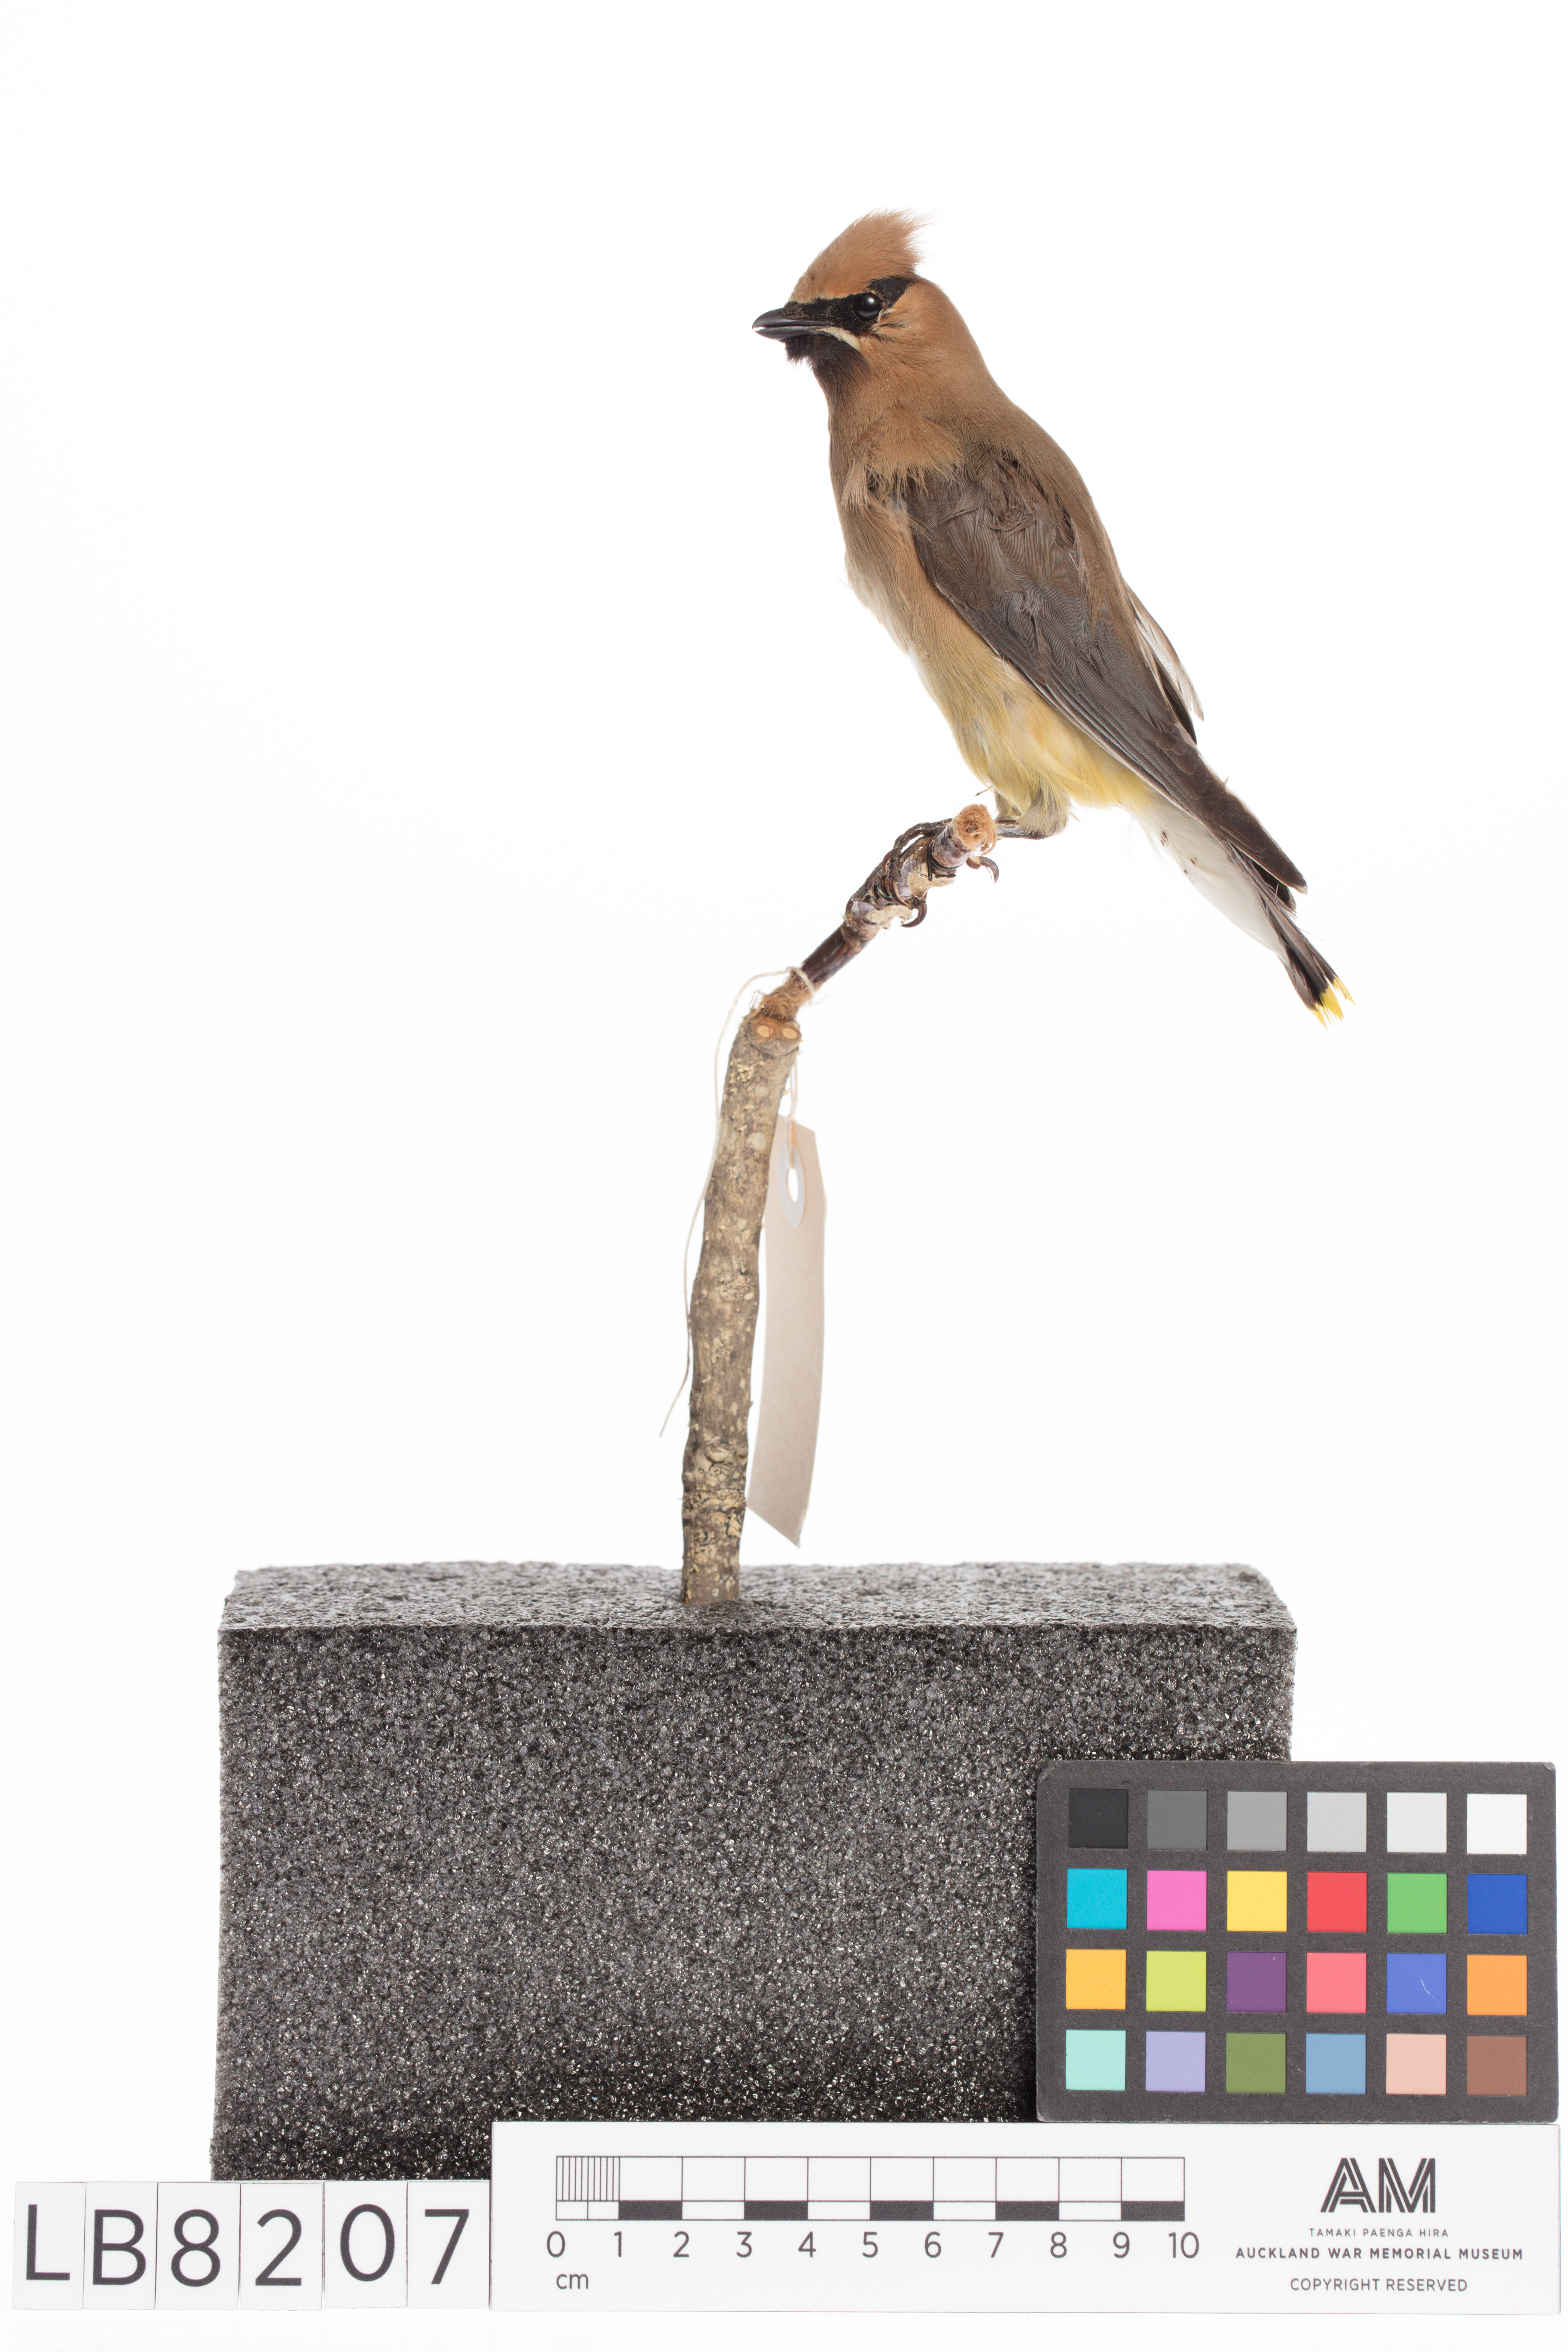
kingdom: Animalia
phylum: Chordata
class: Aves
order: Passeriformes
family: Bombycillidae
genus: Bombycilla
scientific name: Bombycilla cedrorum
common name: Cedar waxwing
